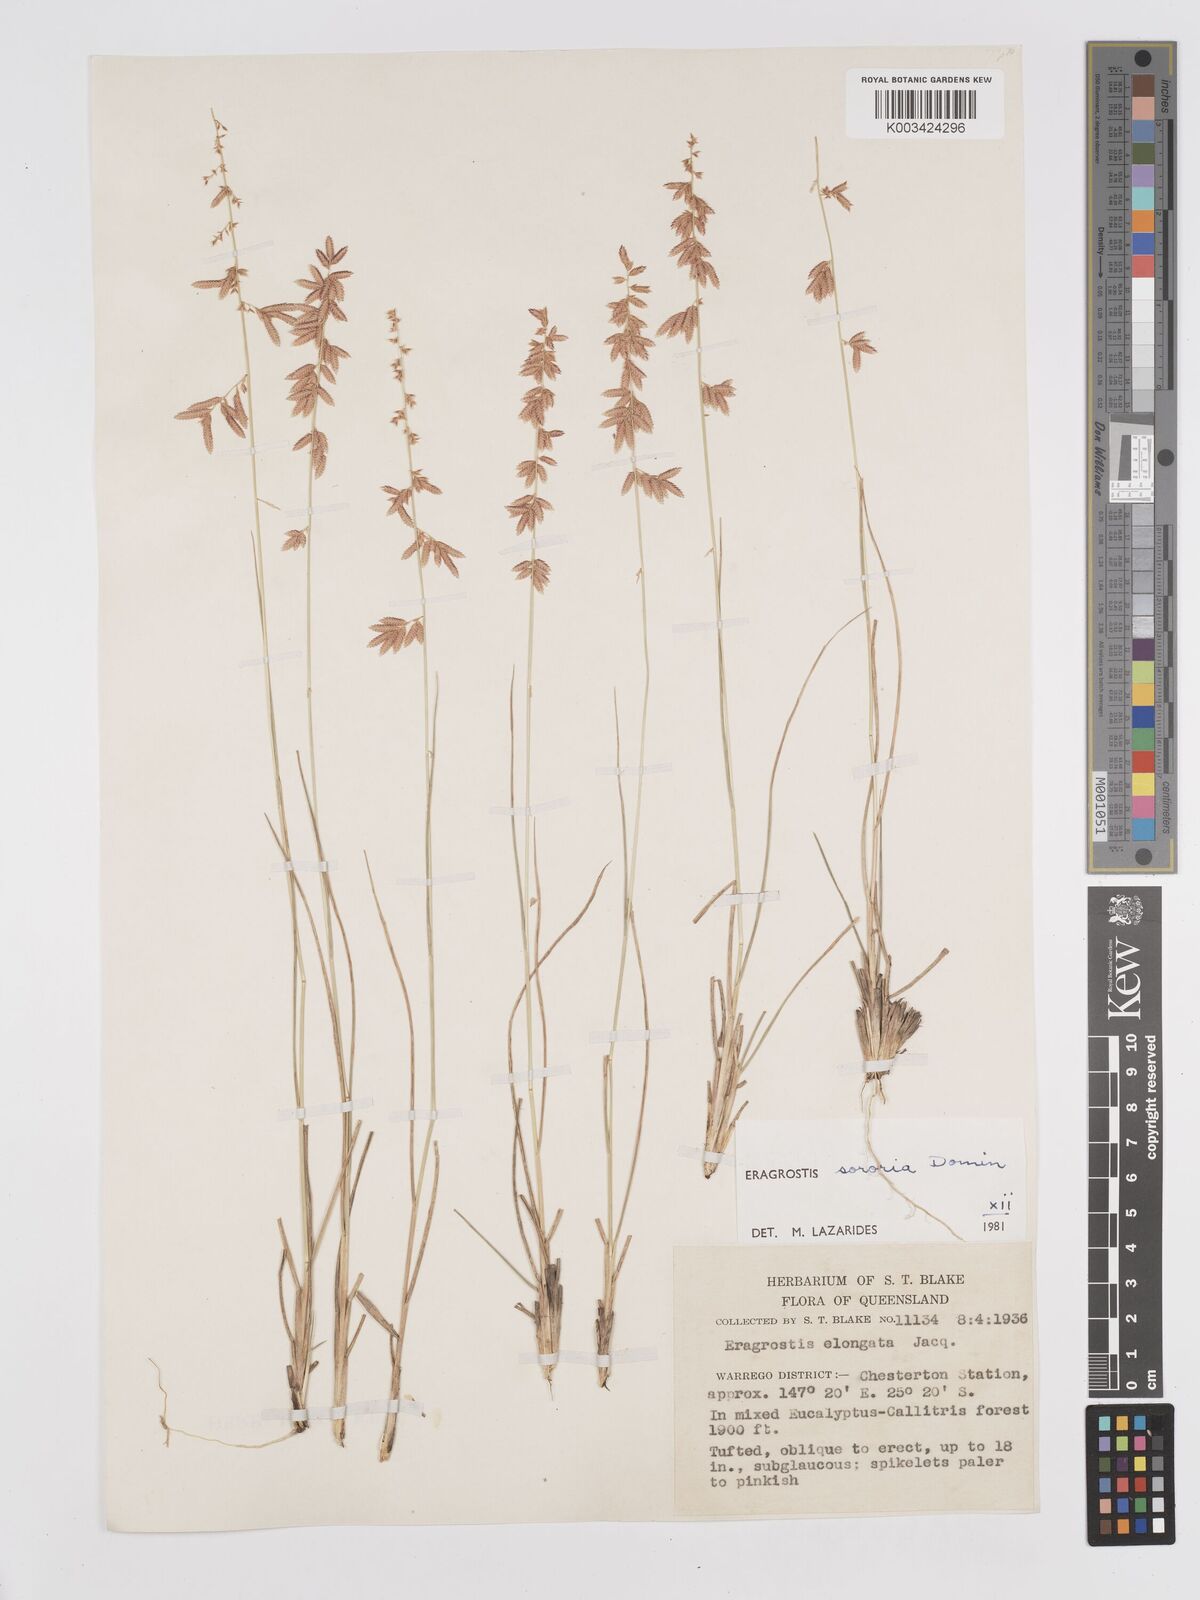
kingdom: Plantae
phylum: Tracheophyta
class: Liliopsida
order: Poales
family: Poaceae
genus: Eragrostis
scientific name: Eragrostis sororia
